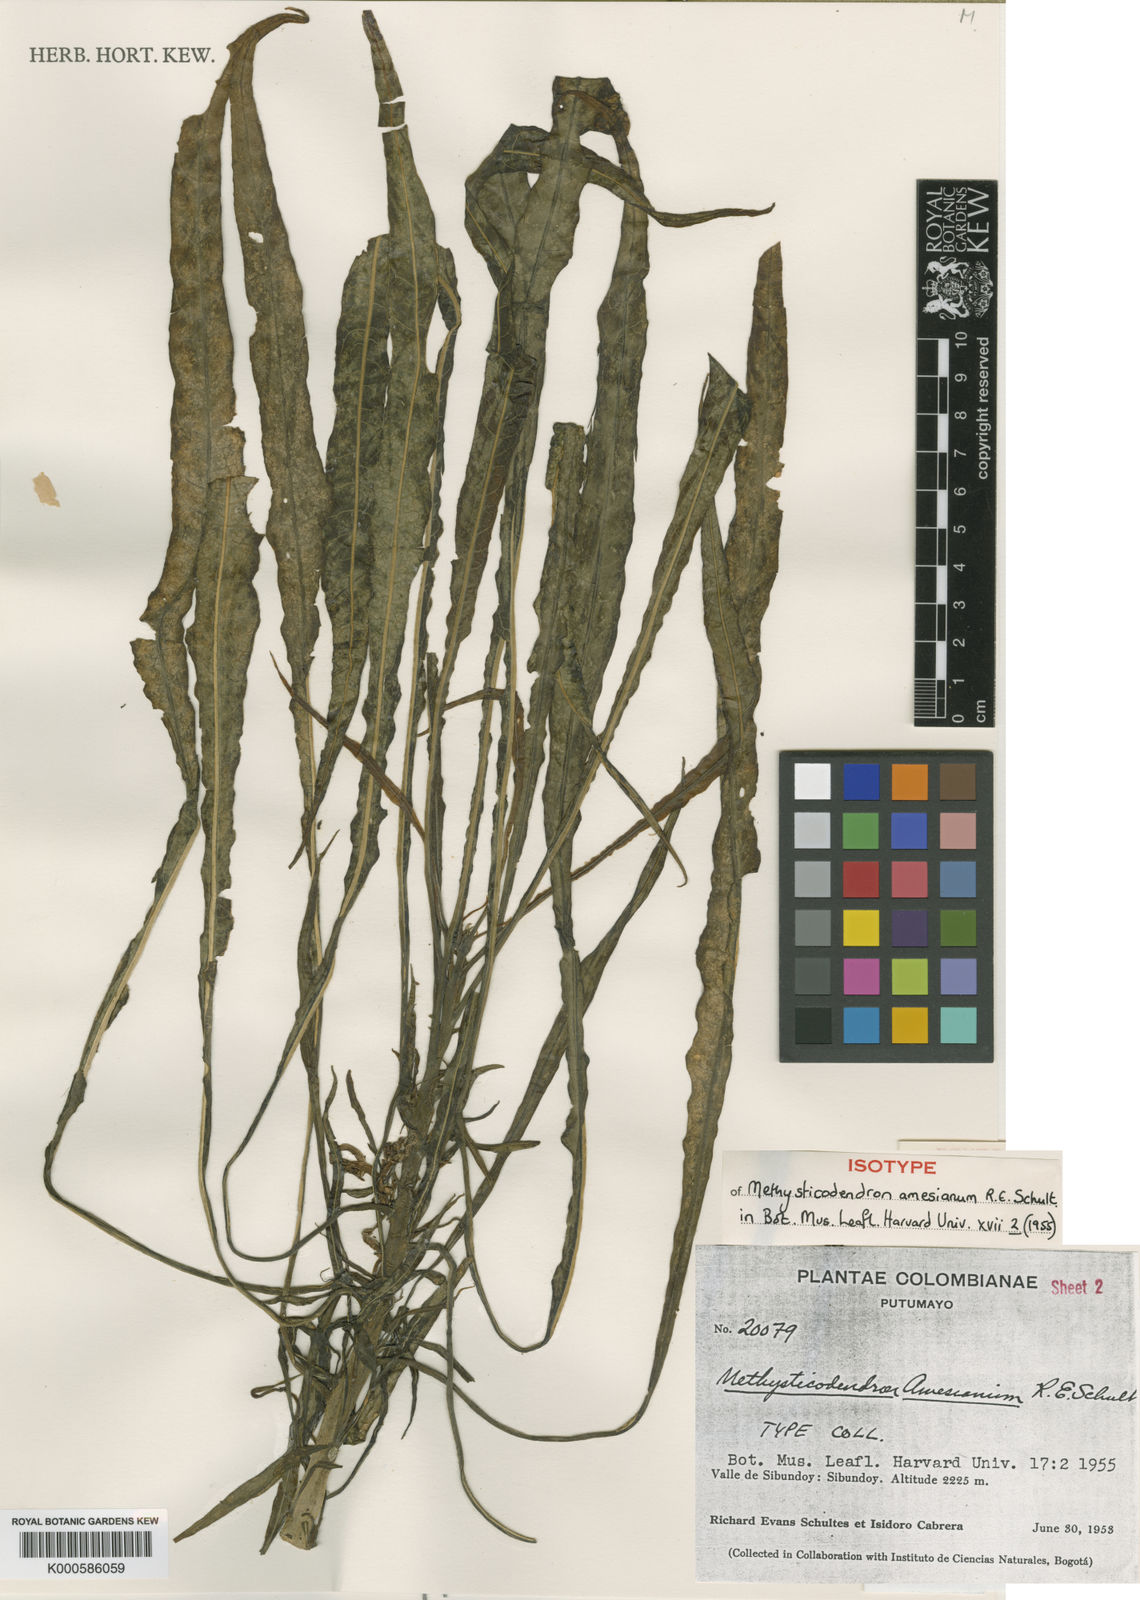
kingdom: Plantae
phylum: Tracheophyta
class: Magnoliopsida
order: Solanales
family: Solanaceae
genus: Brugmansia
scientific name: Brugmansia
